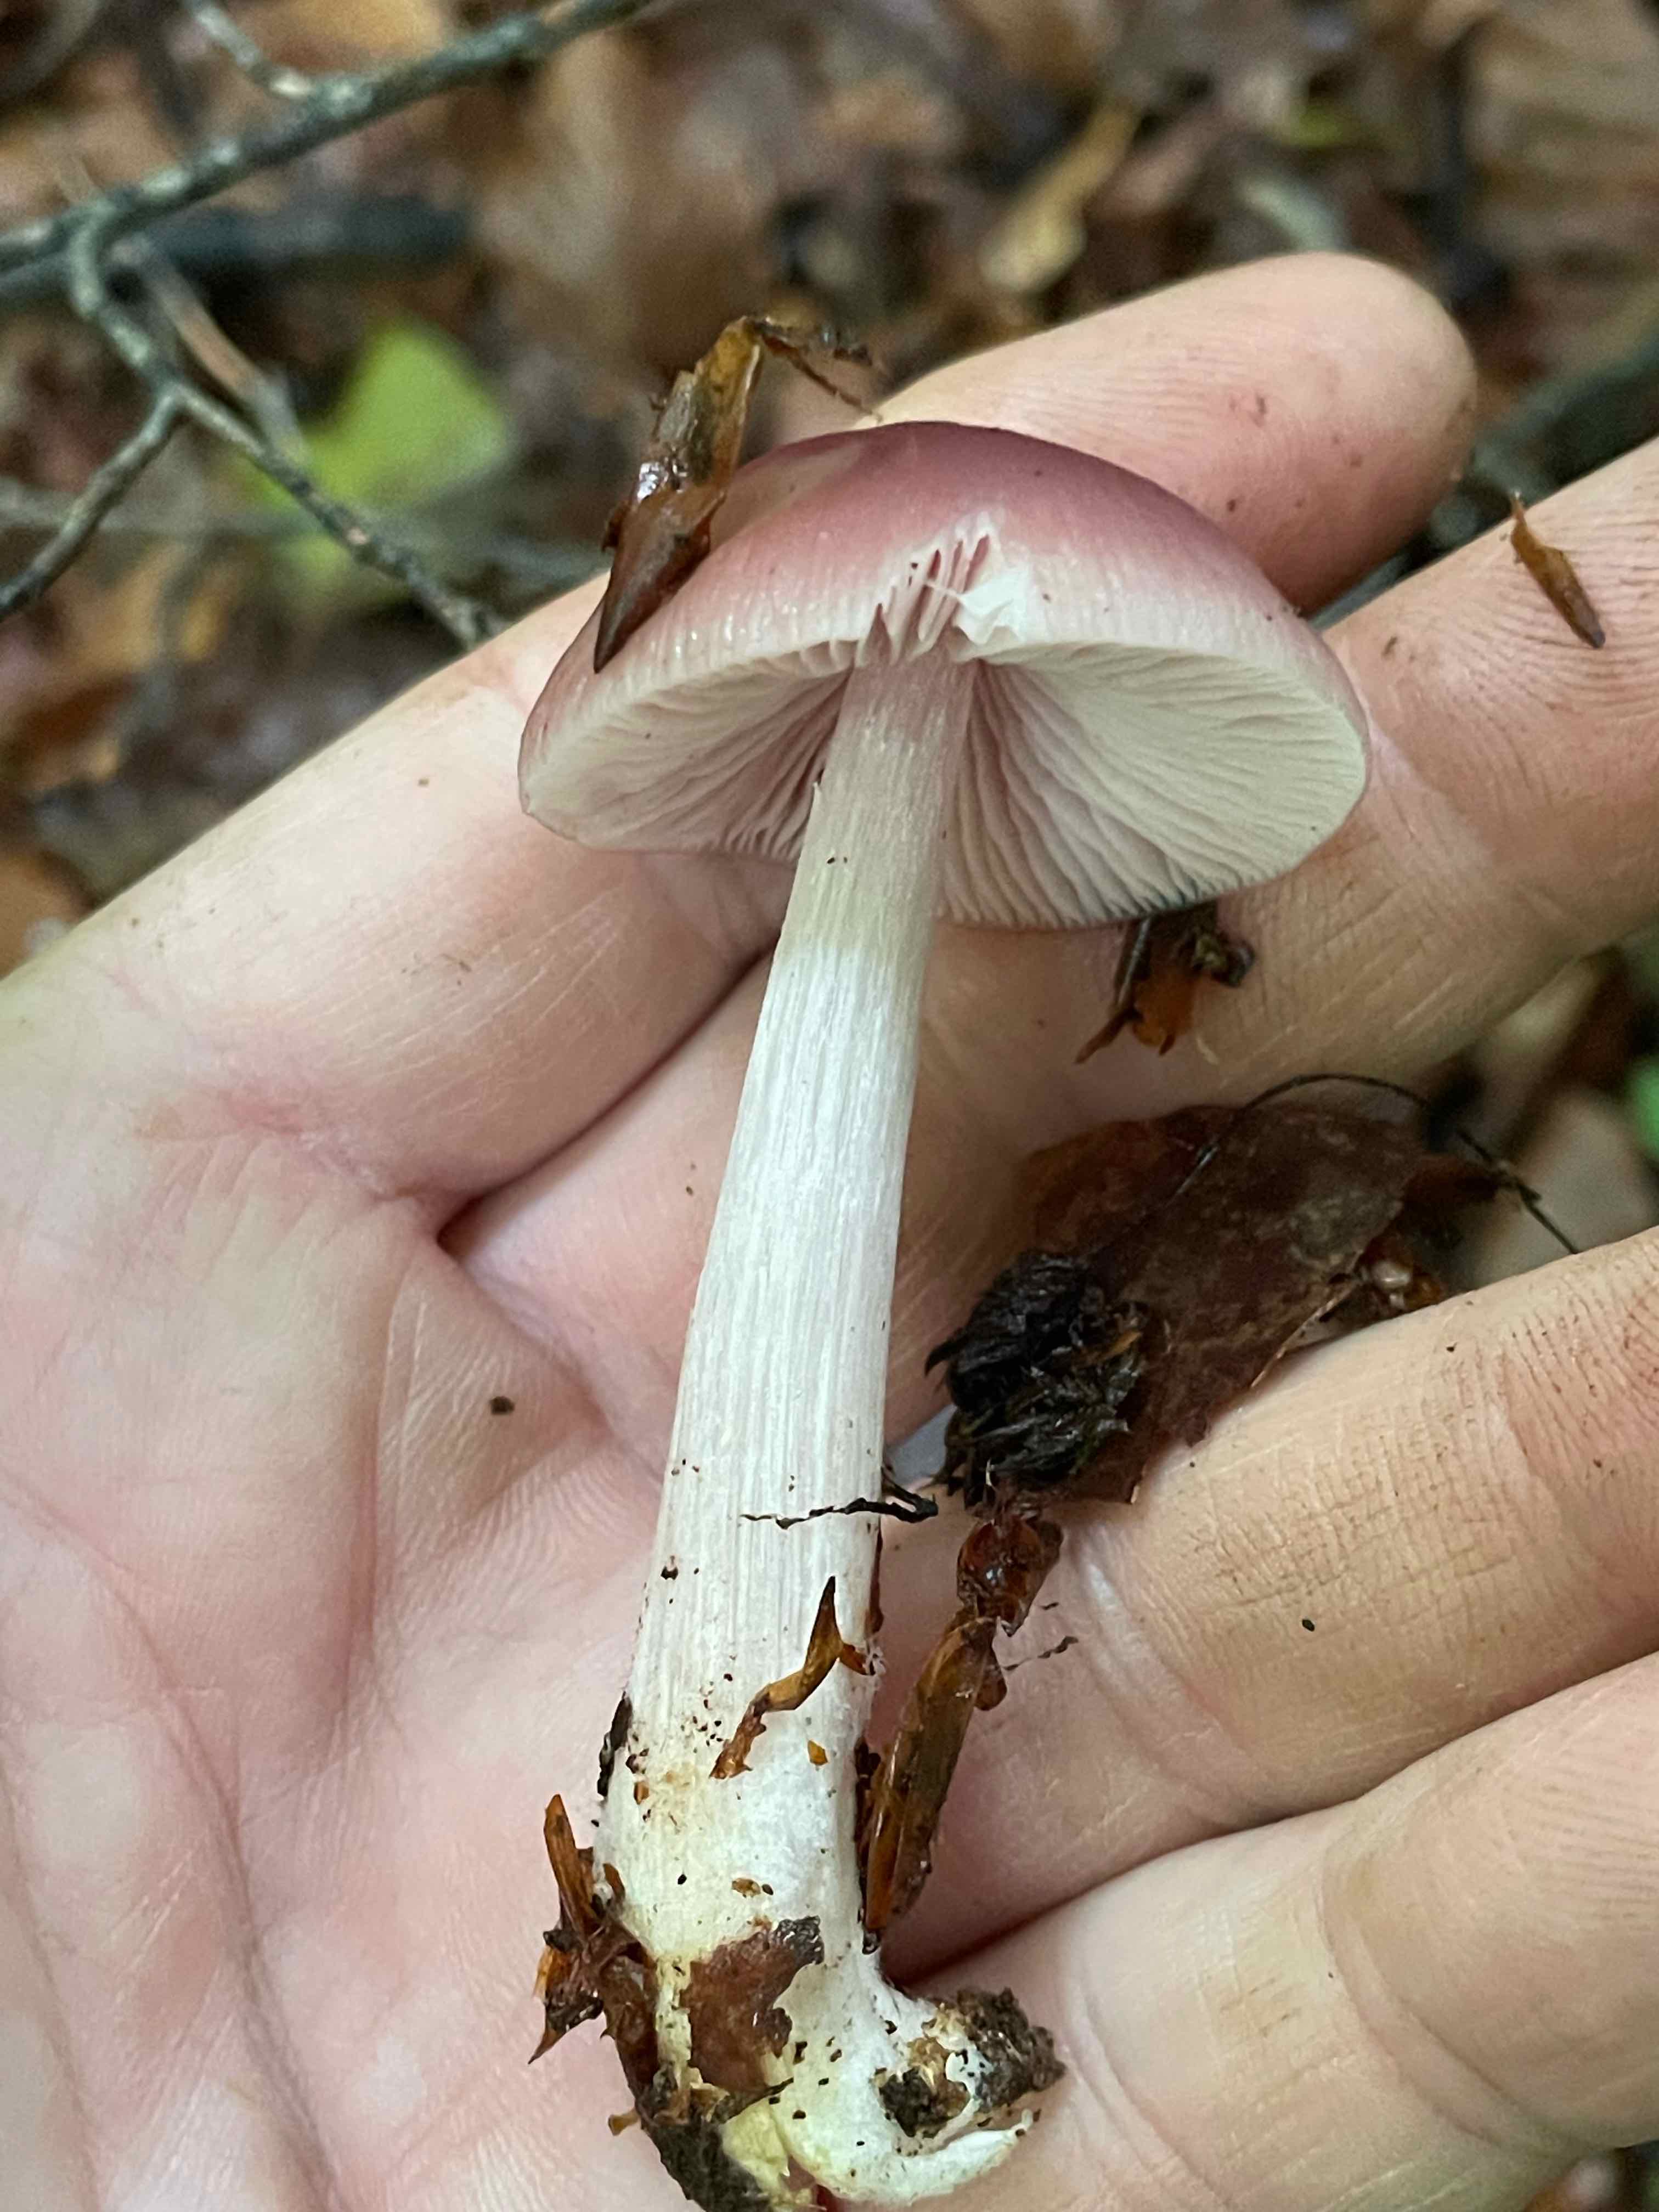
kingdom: Fungi
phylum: Basidiomycota
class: Agaricomycetes
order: Agaricales
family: Mycenaceae
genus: Mycena
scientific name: Mycena rosea
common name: rosa huesvamp
